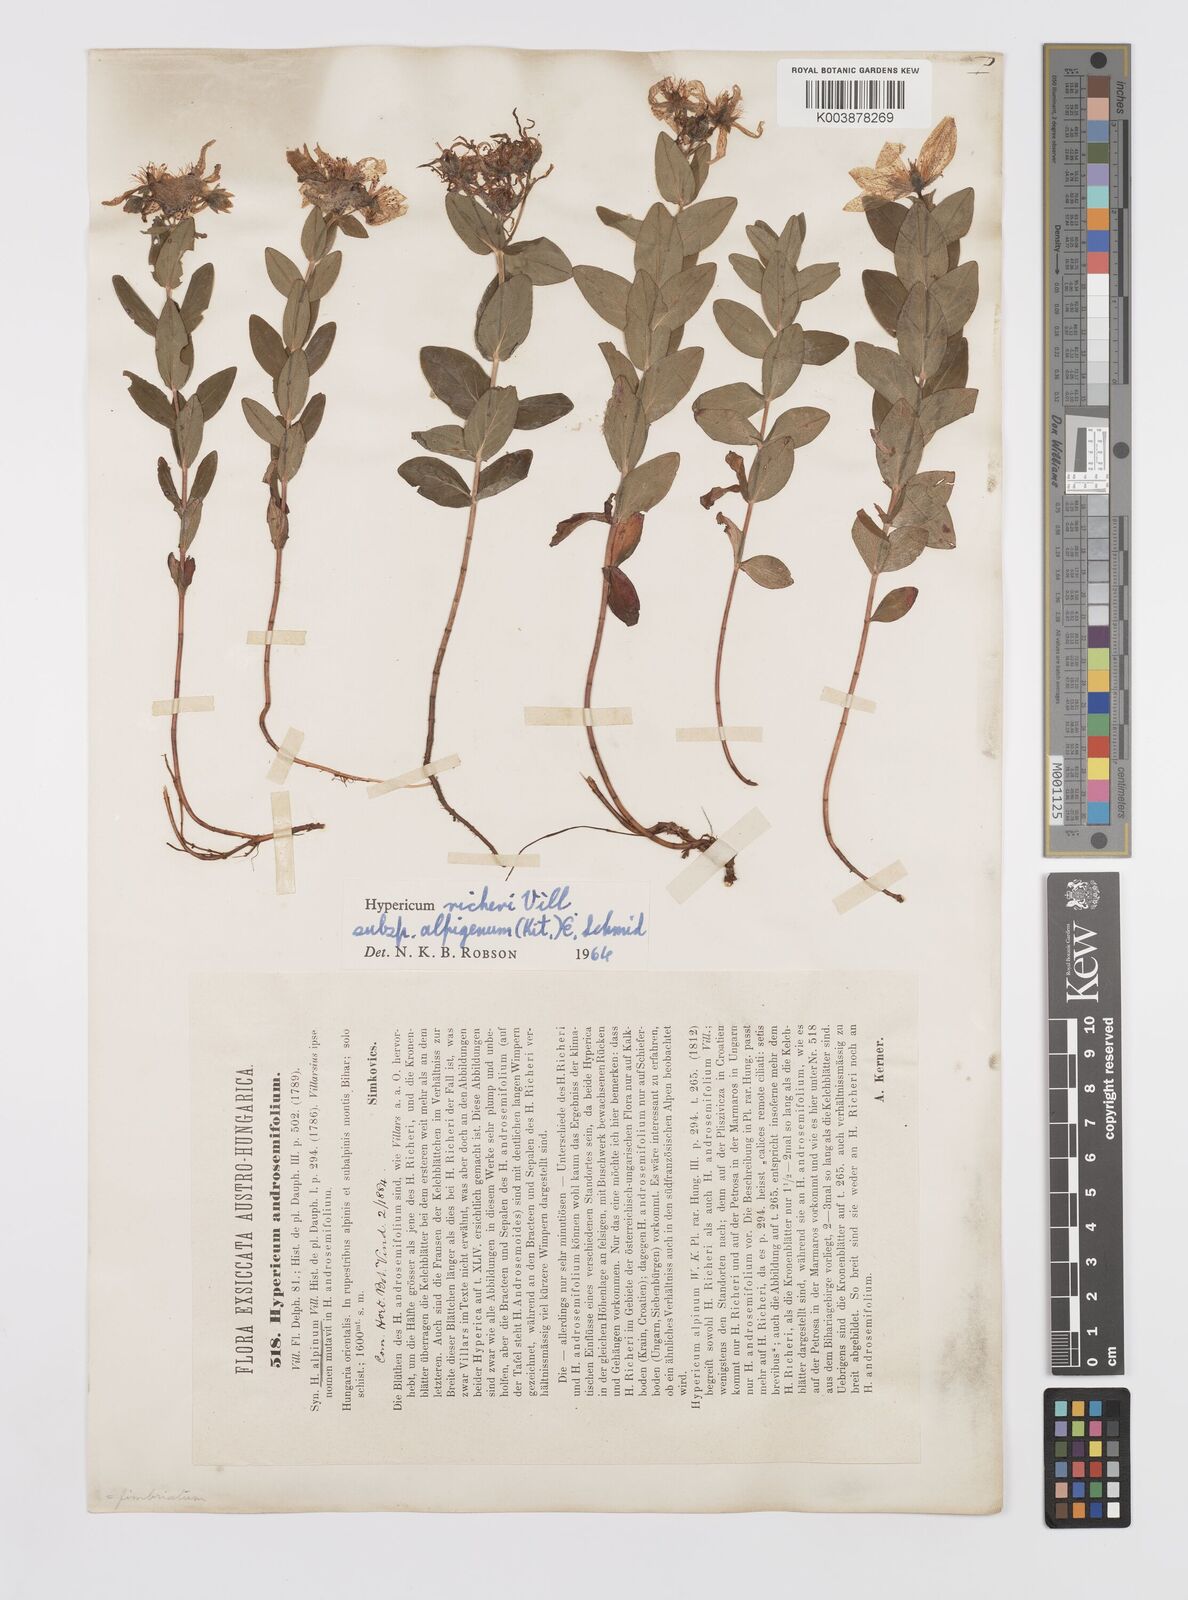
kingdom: Plantae
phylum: Tracheophyta
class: Magnoliopsida
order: Malpighiales
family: Hypericaceae
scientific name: Hypericaceae
